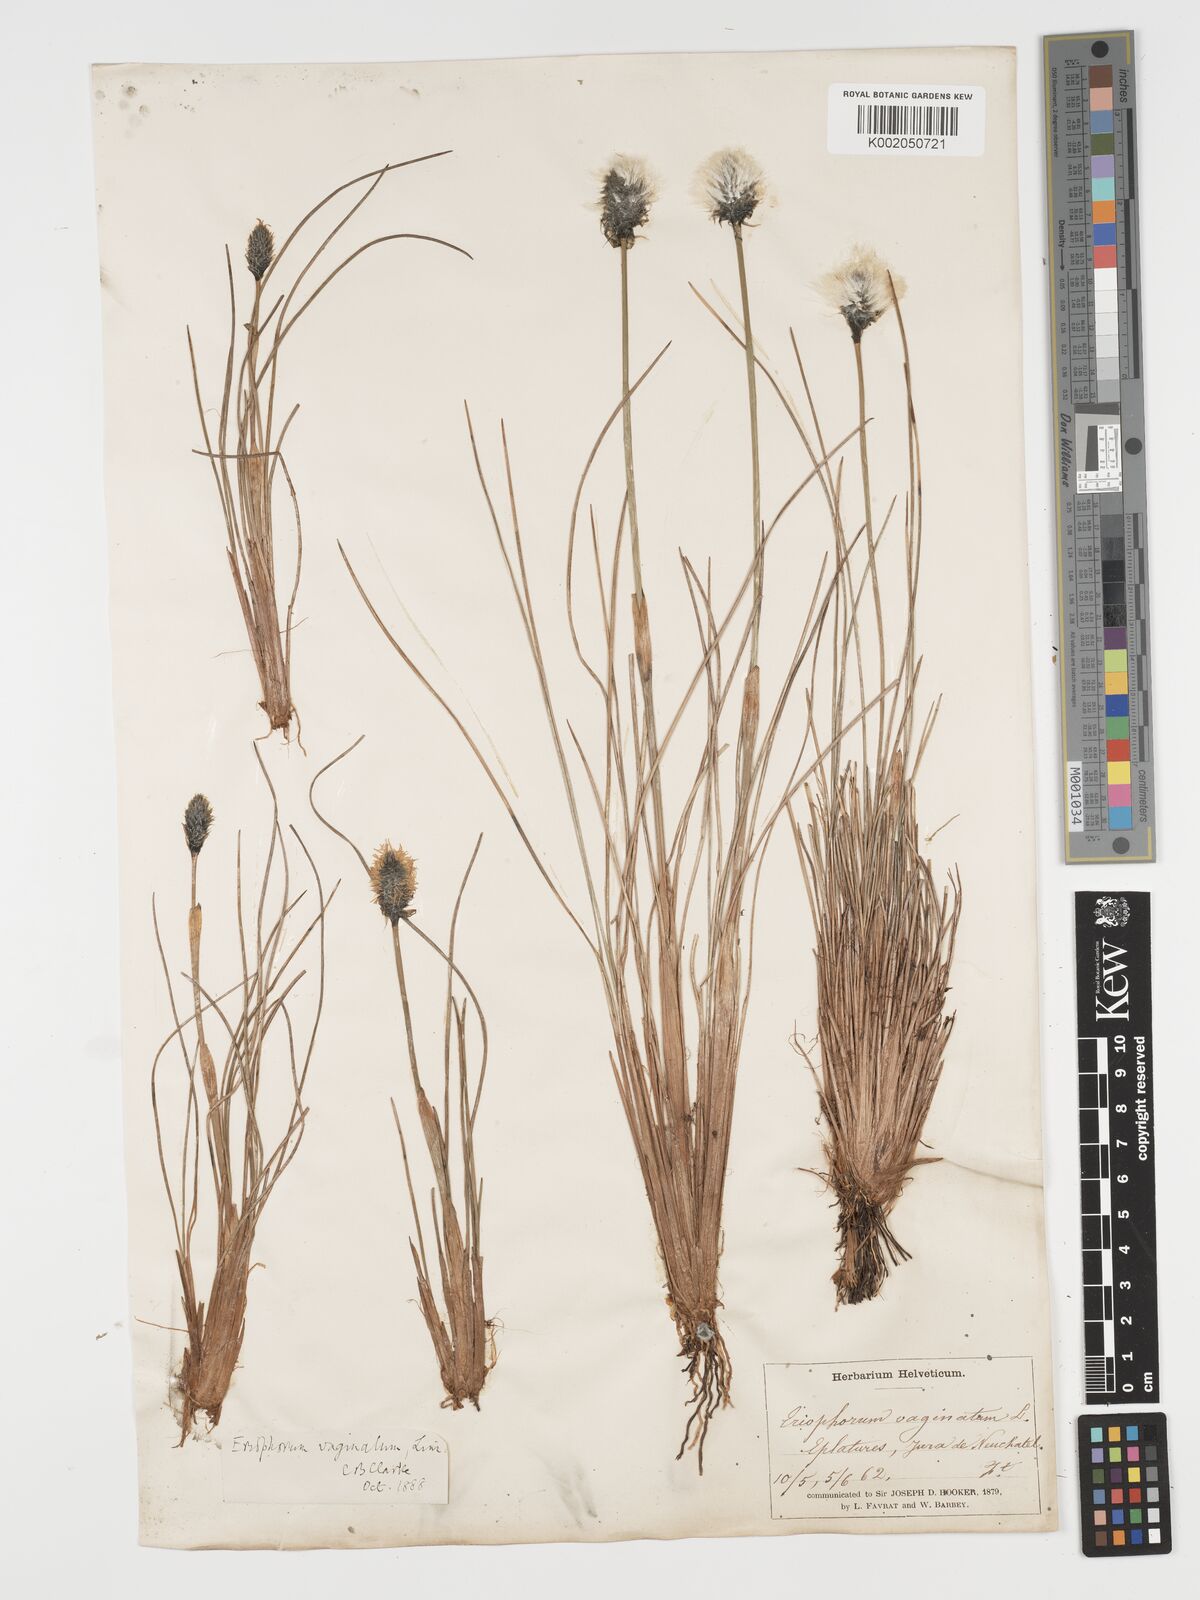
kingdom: Plantae
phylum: Tracheophyta
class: Liliopsida
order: Poales
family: Cyperaceae
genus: Eriophorum
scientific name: Eriophorum vaginatum
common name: Hare's-tail cottongrass
